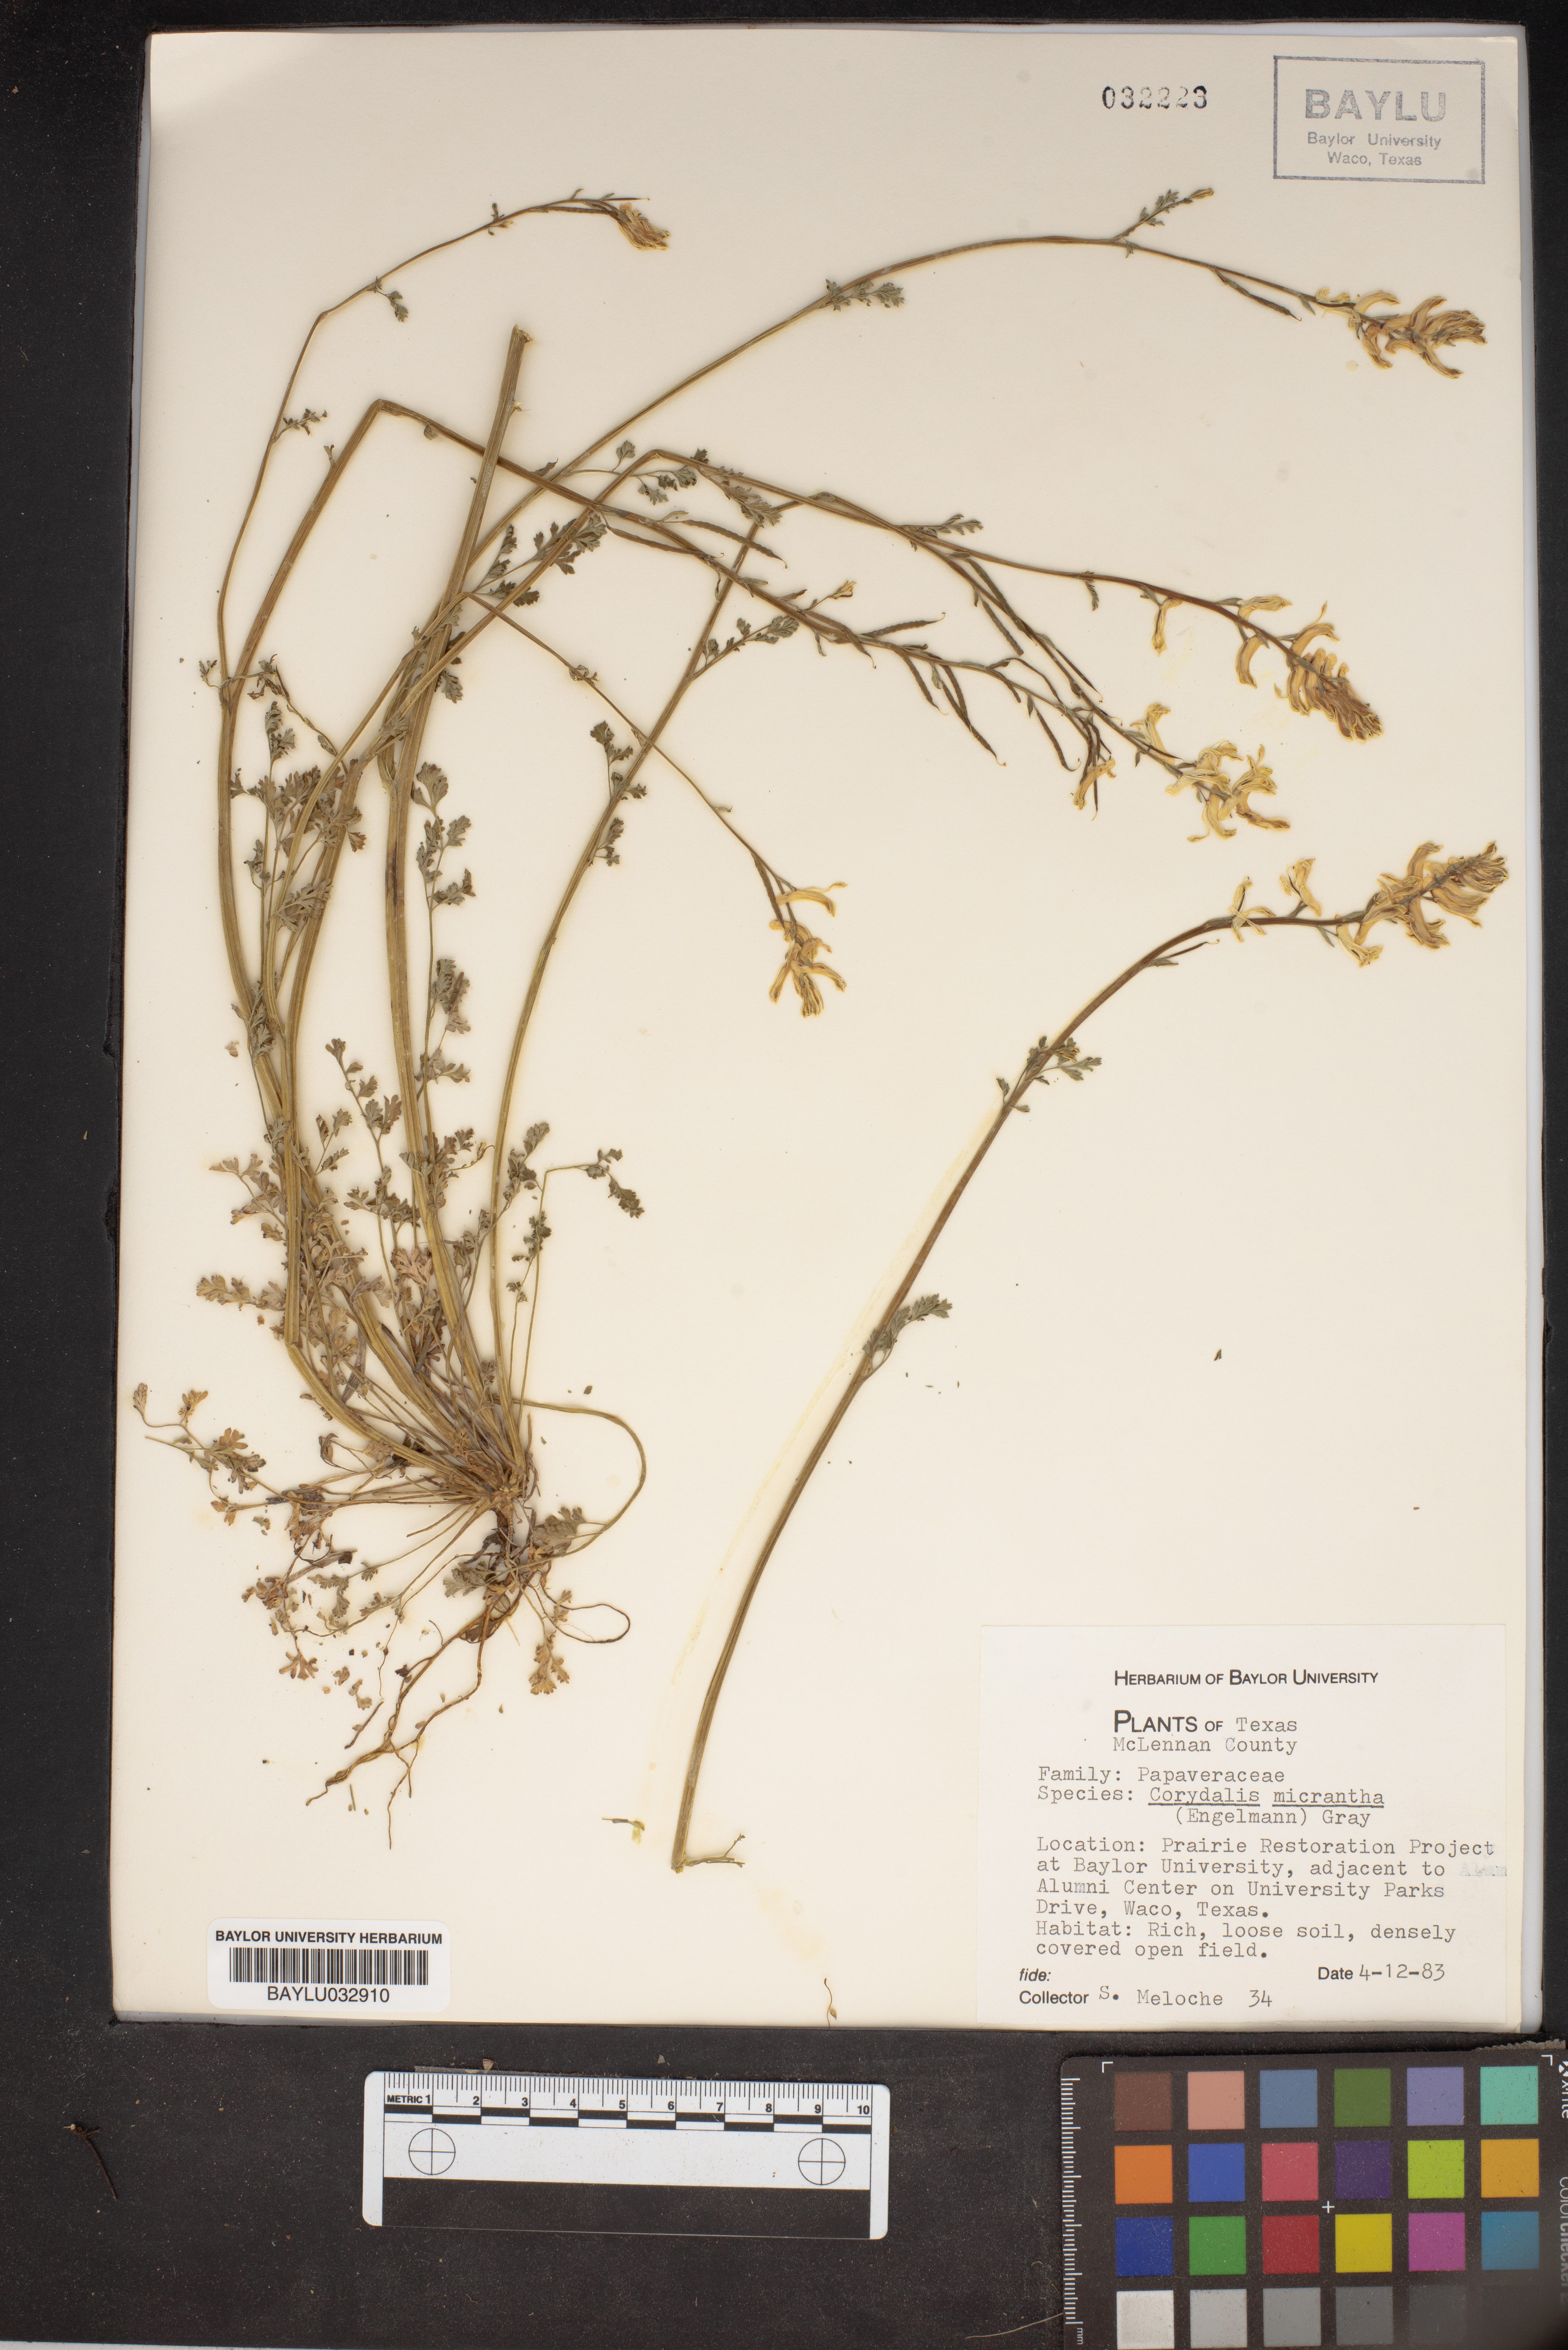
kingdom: Plantae
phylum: Tracheophyta
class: Magnoliopsida
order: Ranunculales
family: Papaveraceae
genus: Corydalis
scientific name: Corydalis micrantha
